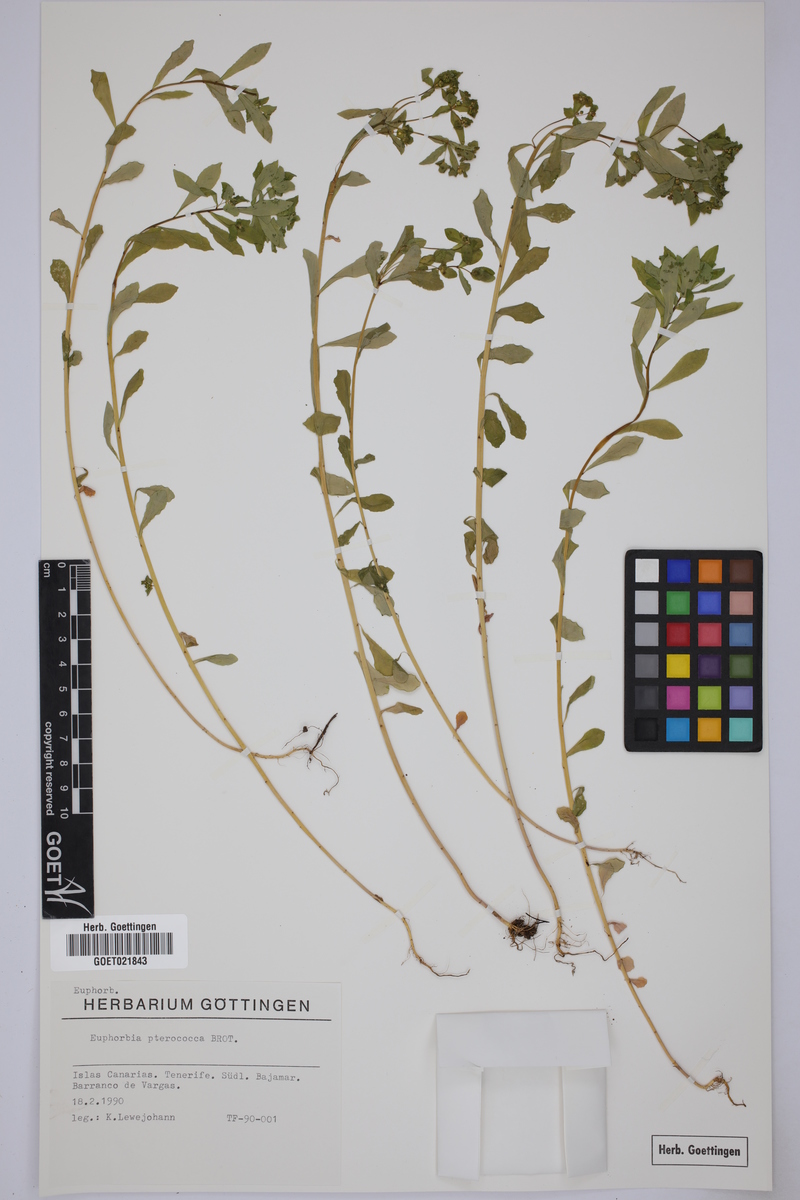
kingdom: Plantae
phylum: Tracheophyta
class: Magnoliopsida
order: Malpighiales
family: Euphorbiaceae
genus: Euphorbia
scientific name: Euphorbia pterococca
